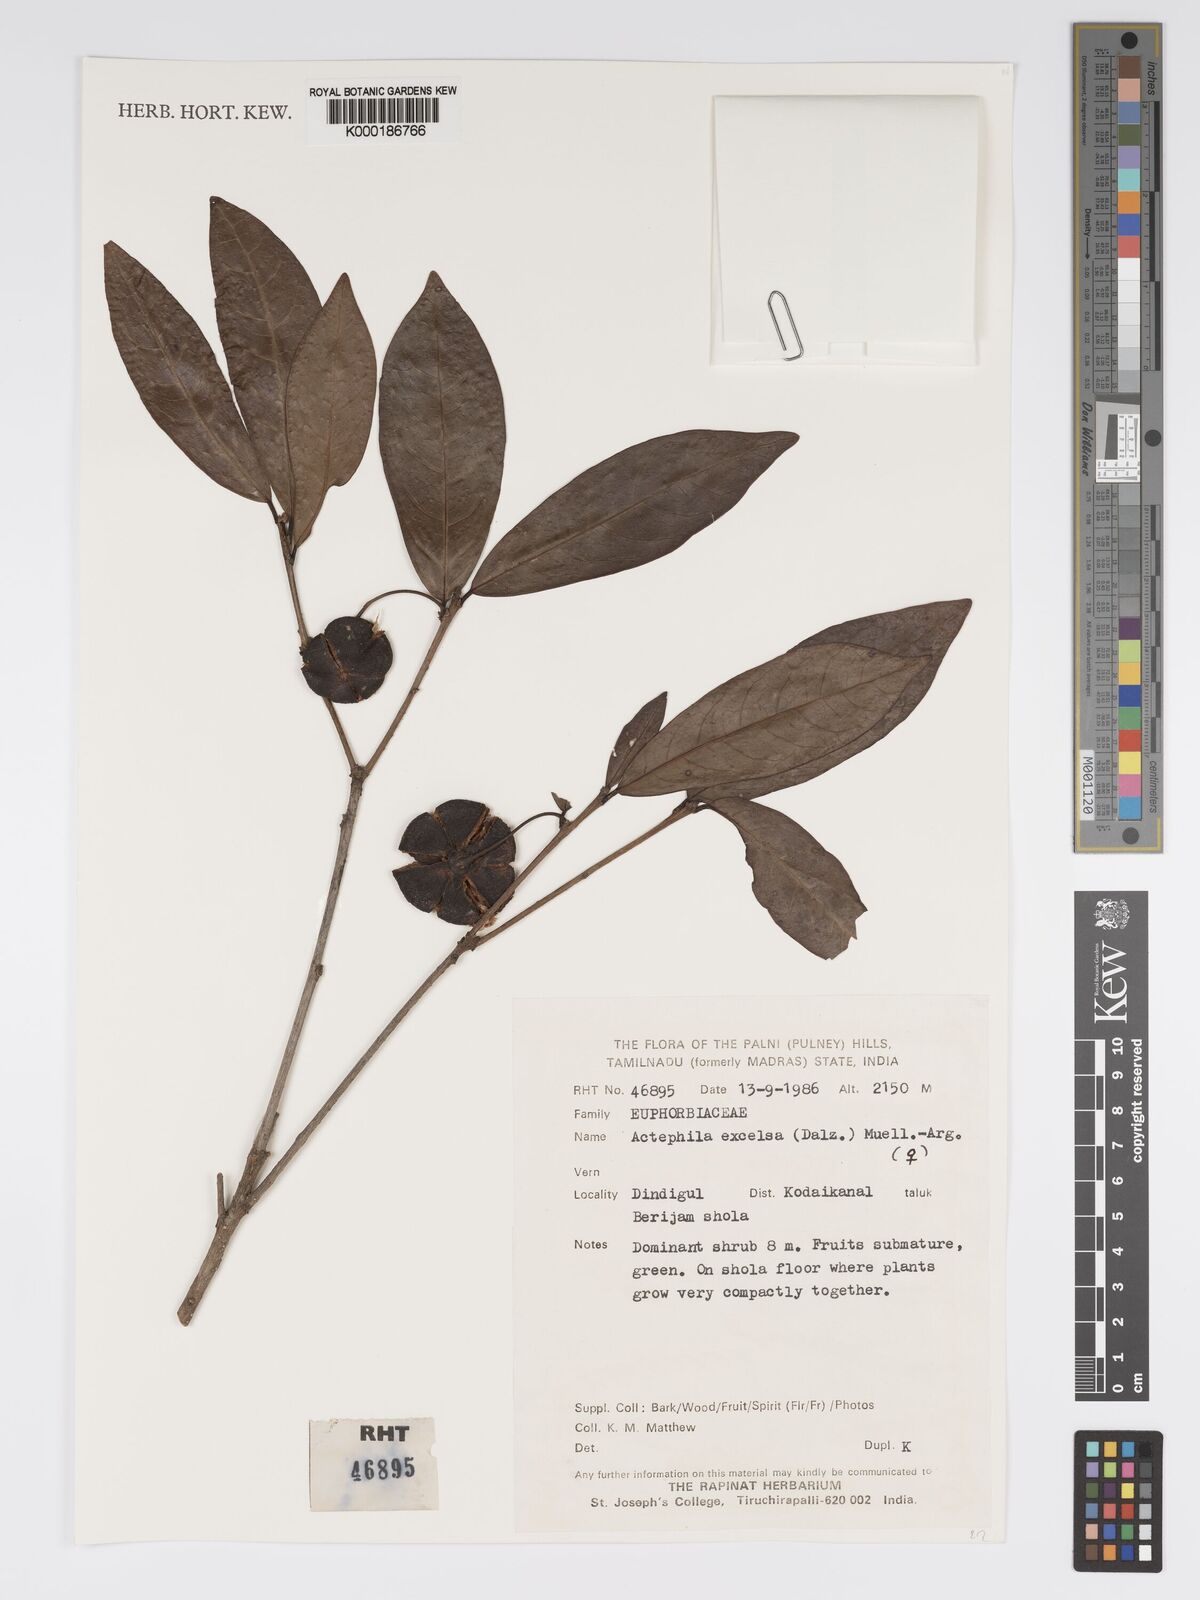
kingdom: Plantae
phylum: Tracheophyta
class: Magnoliopsida
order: Malpighiales
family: Phyllanthaceae
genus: Actephila
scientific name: Actephila excelsa
